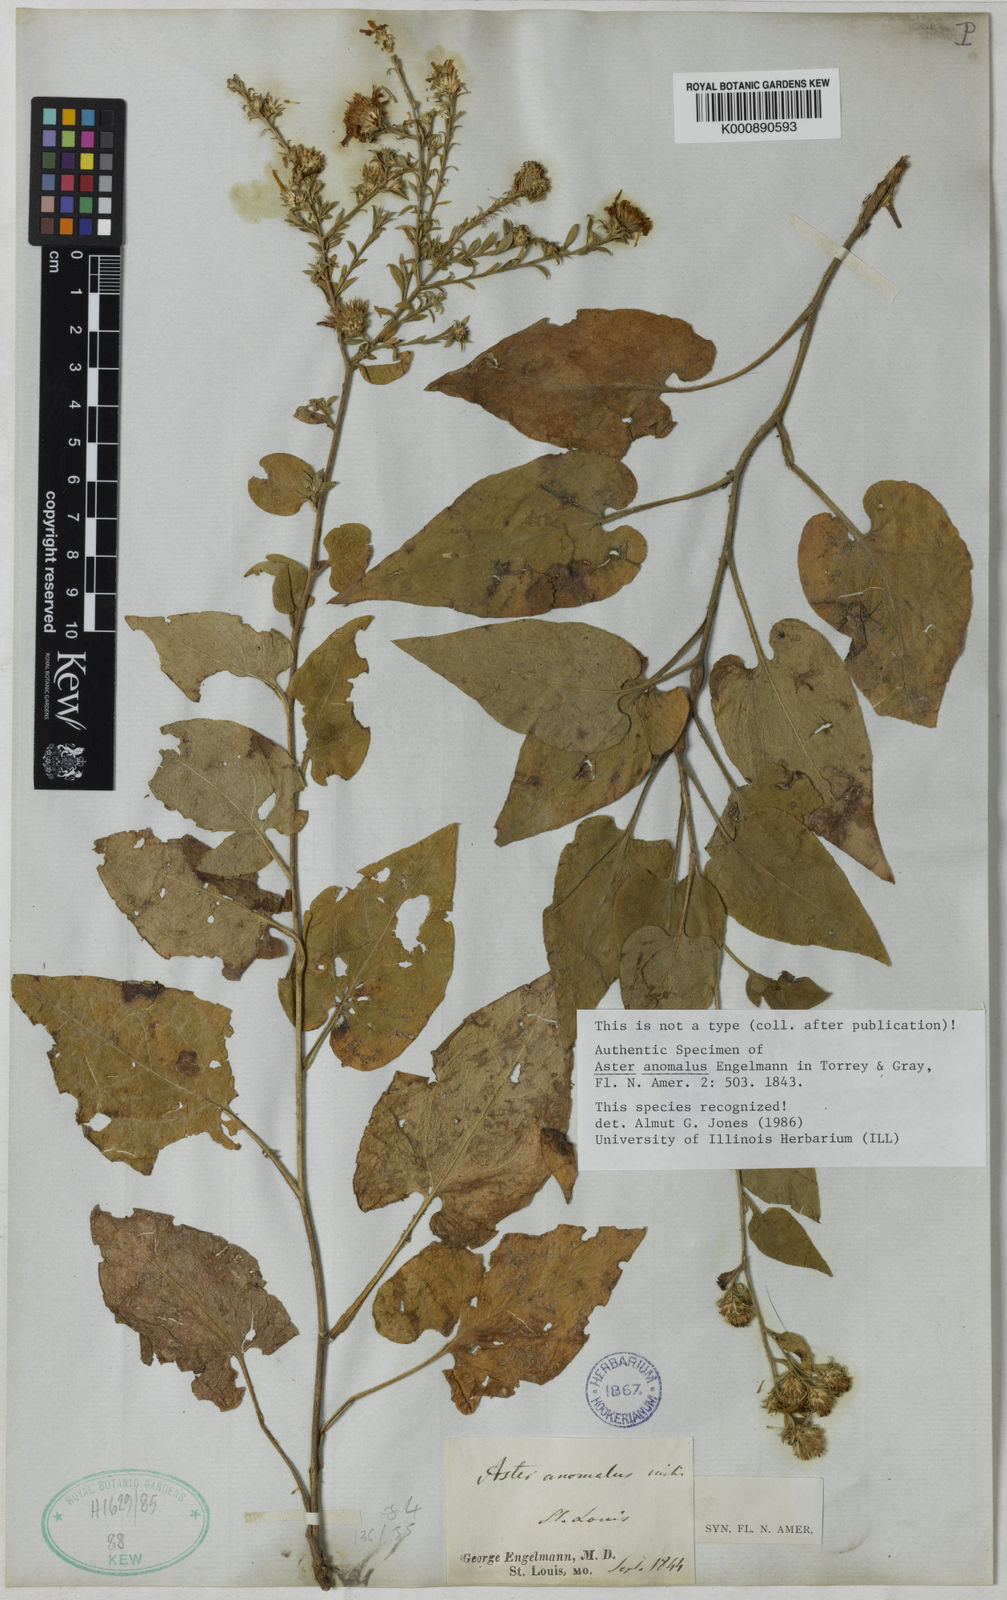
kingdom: Plantae
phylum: Tracheophyta
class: Magnoliopsida
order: Asterales
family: Asteraceae
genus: Symphyotrichum
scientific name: Symphyotrichum anomalum
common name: Many-ray aster
